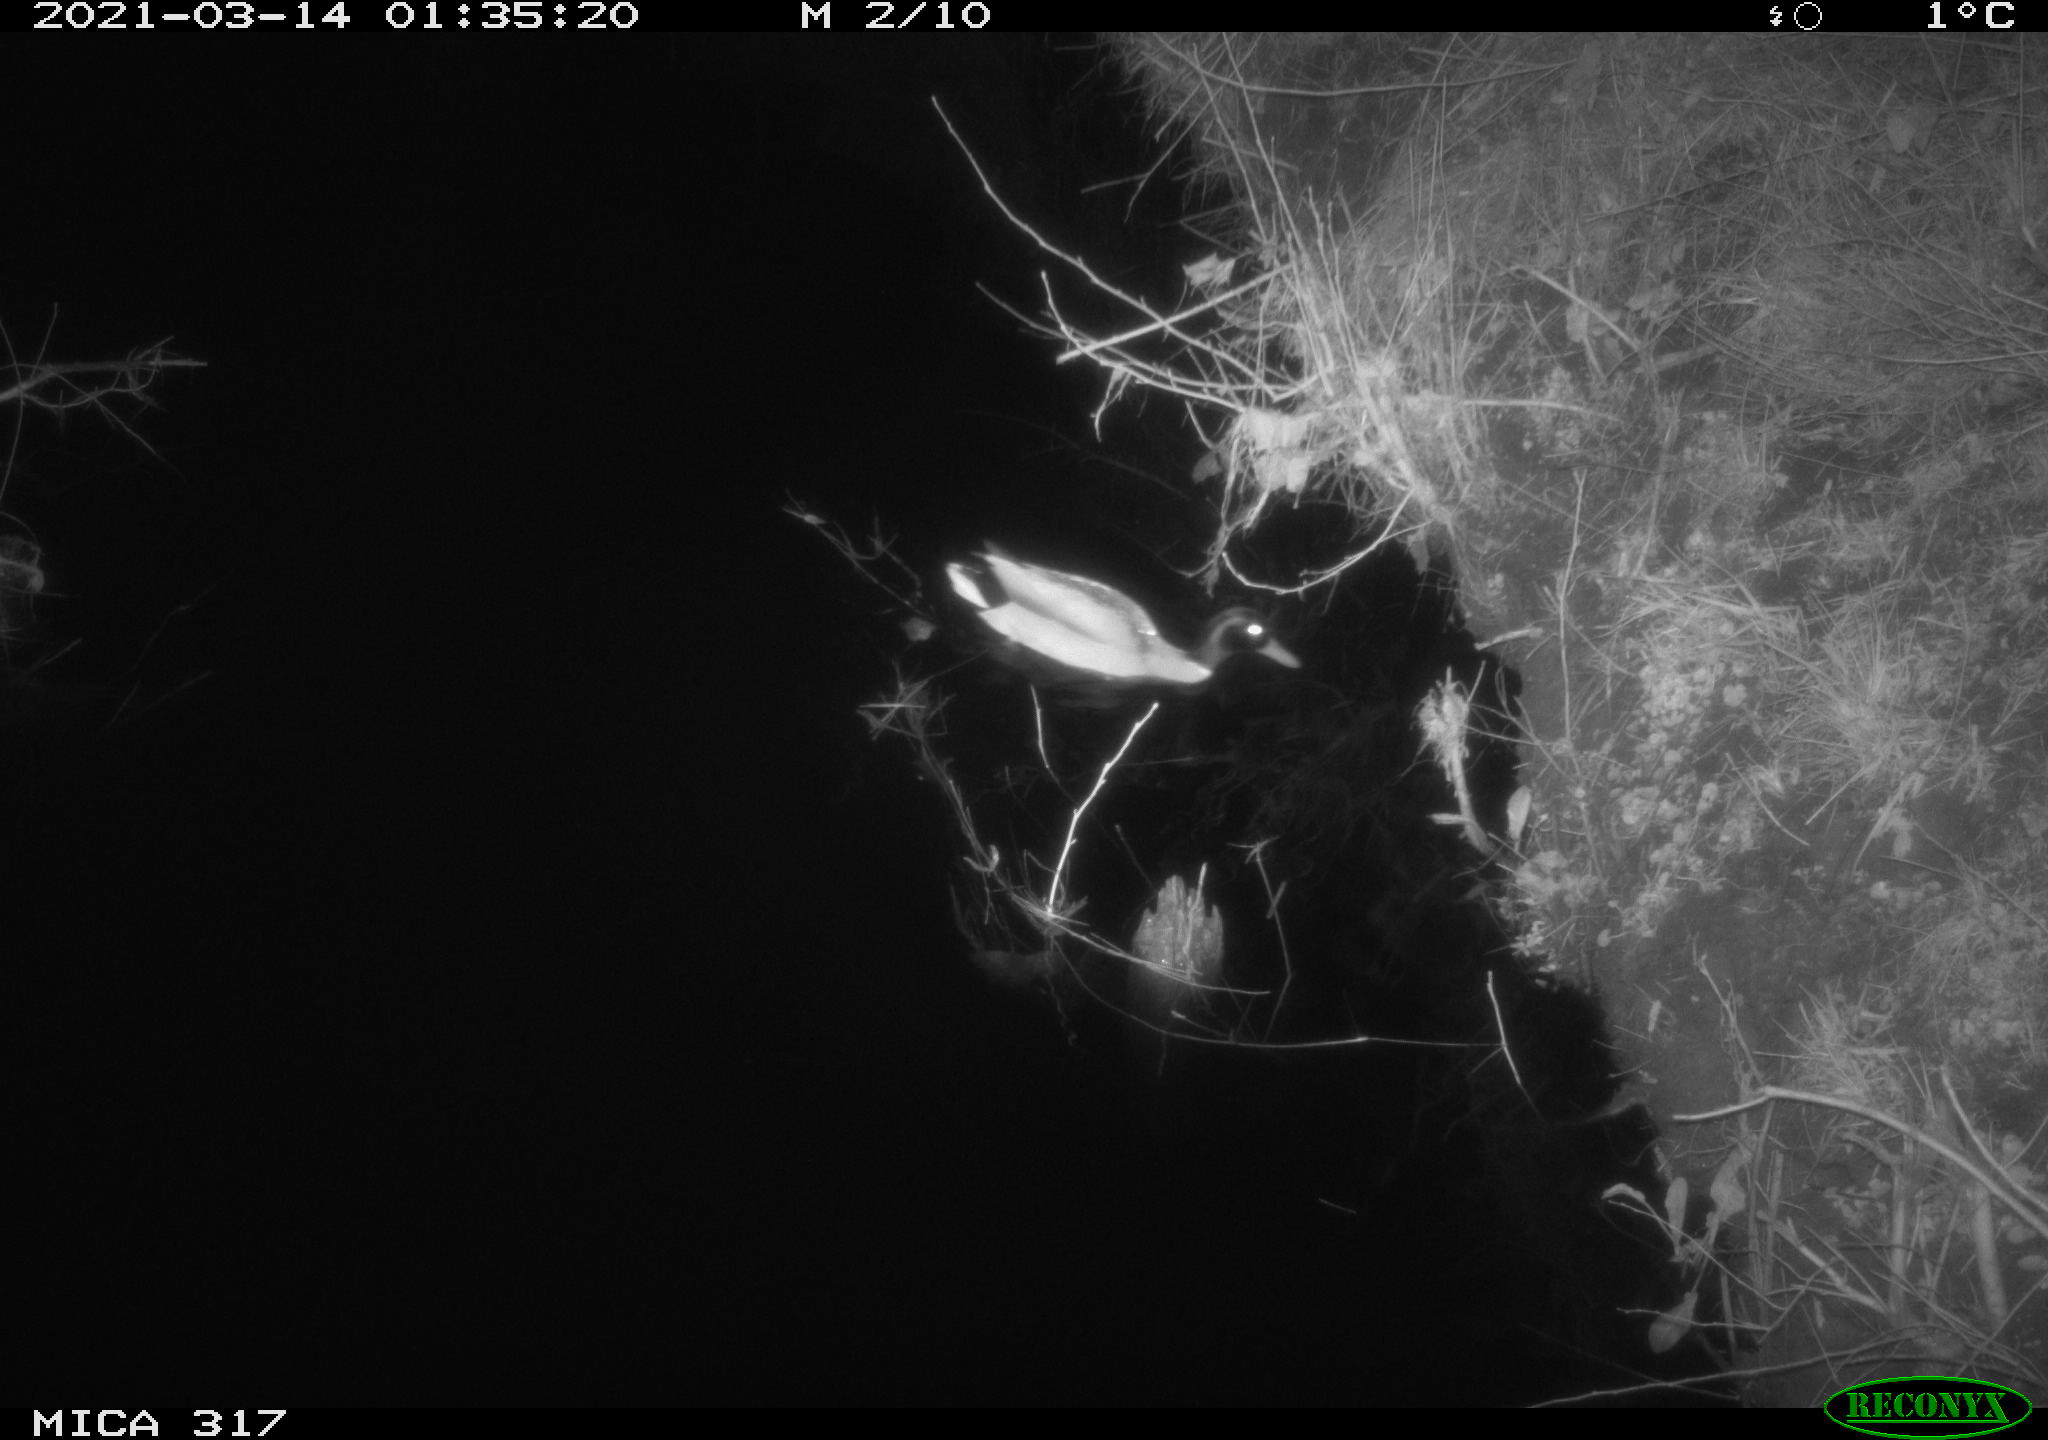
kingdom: Animalia
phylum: Chordata
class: Aves
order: Anseriformes
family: Anatidae
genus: Anas
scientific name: Anas platyrhynchos
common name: Mallard
